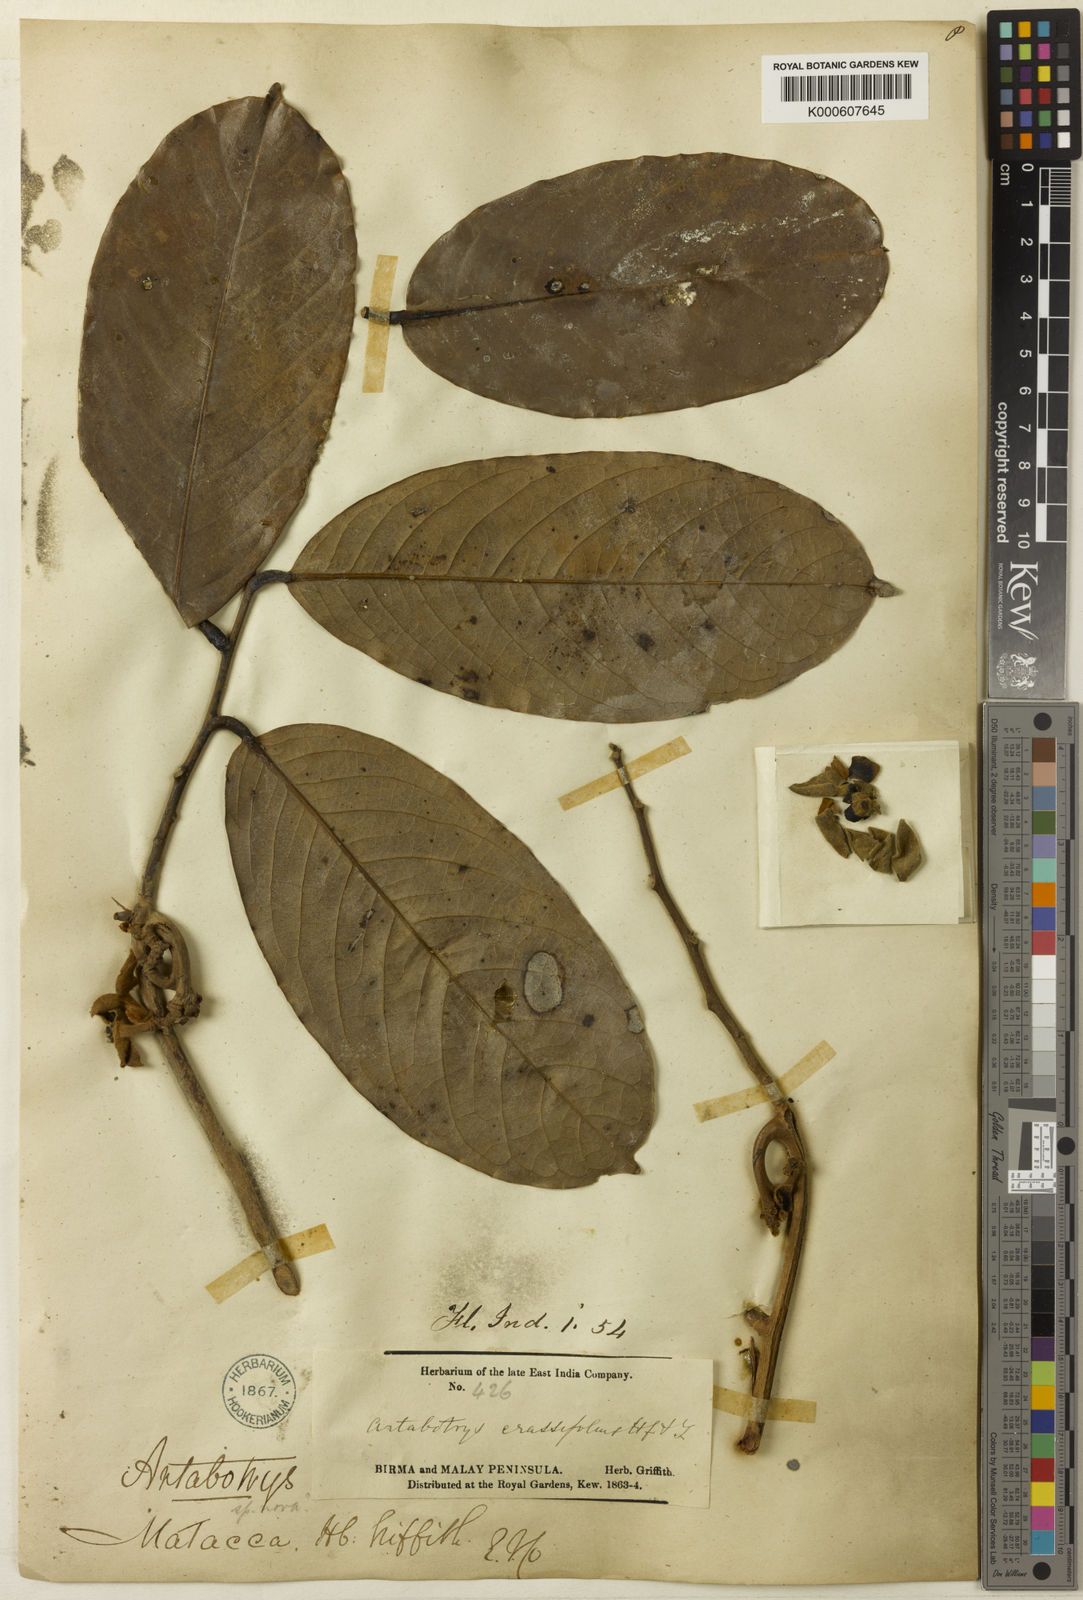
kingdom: Plantae
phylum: Tracheophyta
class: Magnoliopsida
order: Magnoliales
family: Annonaceae
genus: Artabotrys
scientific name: Artabotrys crassifolius
